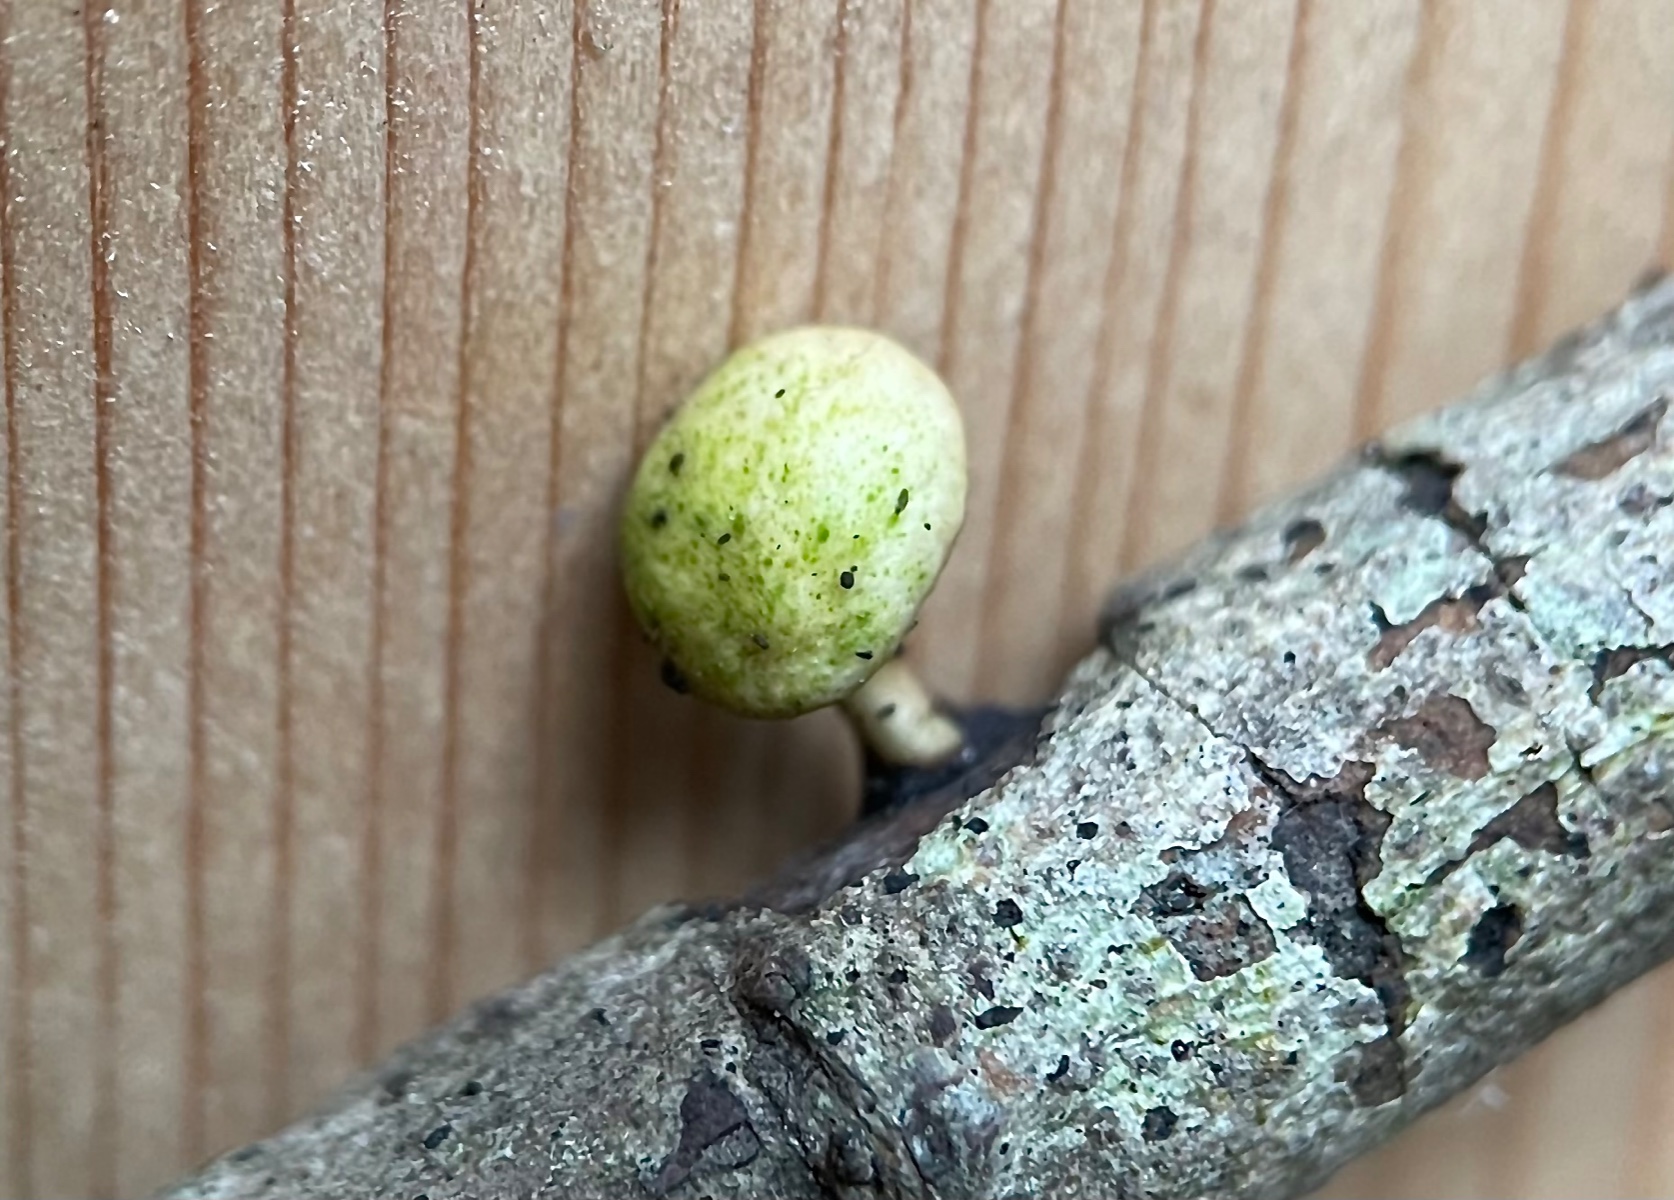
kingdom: Fungi
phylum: Basidiomycota
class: Agaricomycetes
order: Polyporales
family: Polyporaceae
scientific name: Polyporaceae
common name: poresvampfamilien
